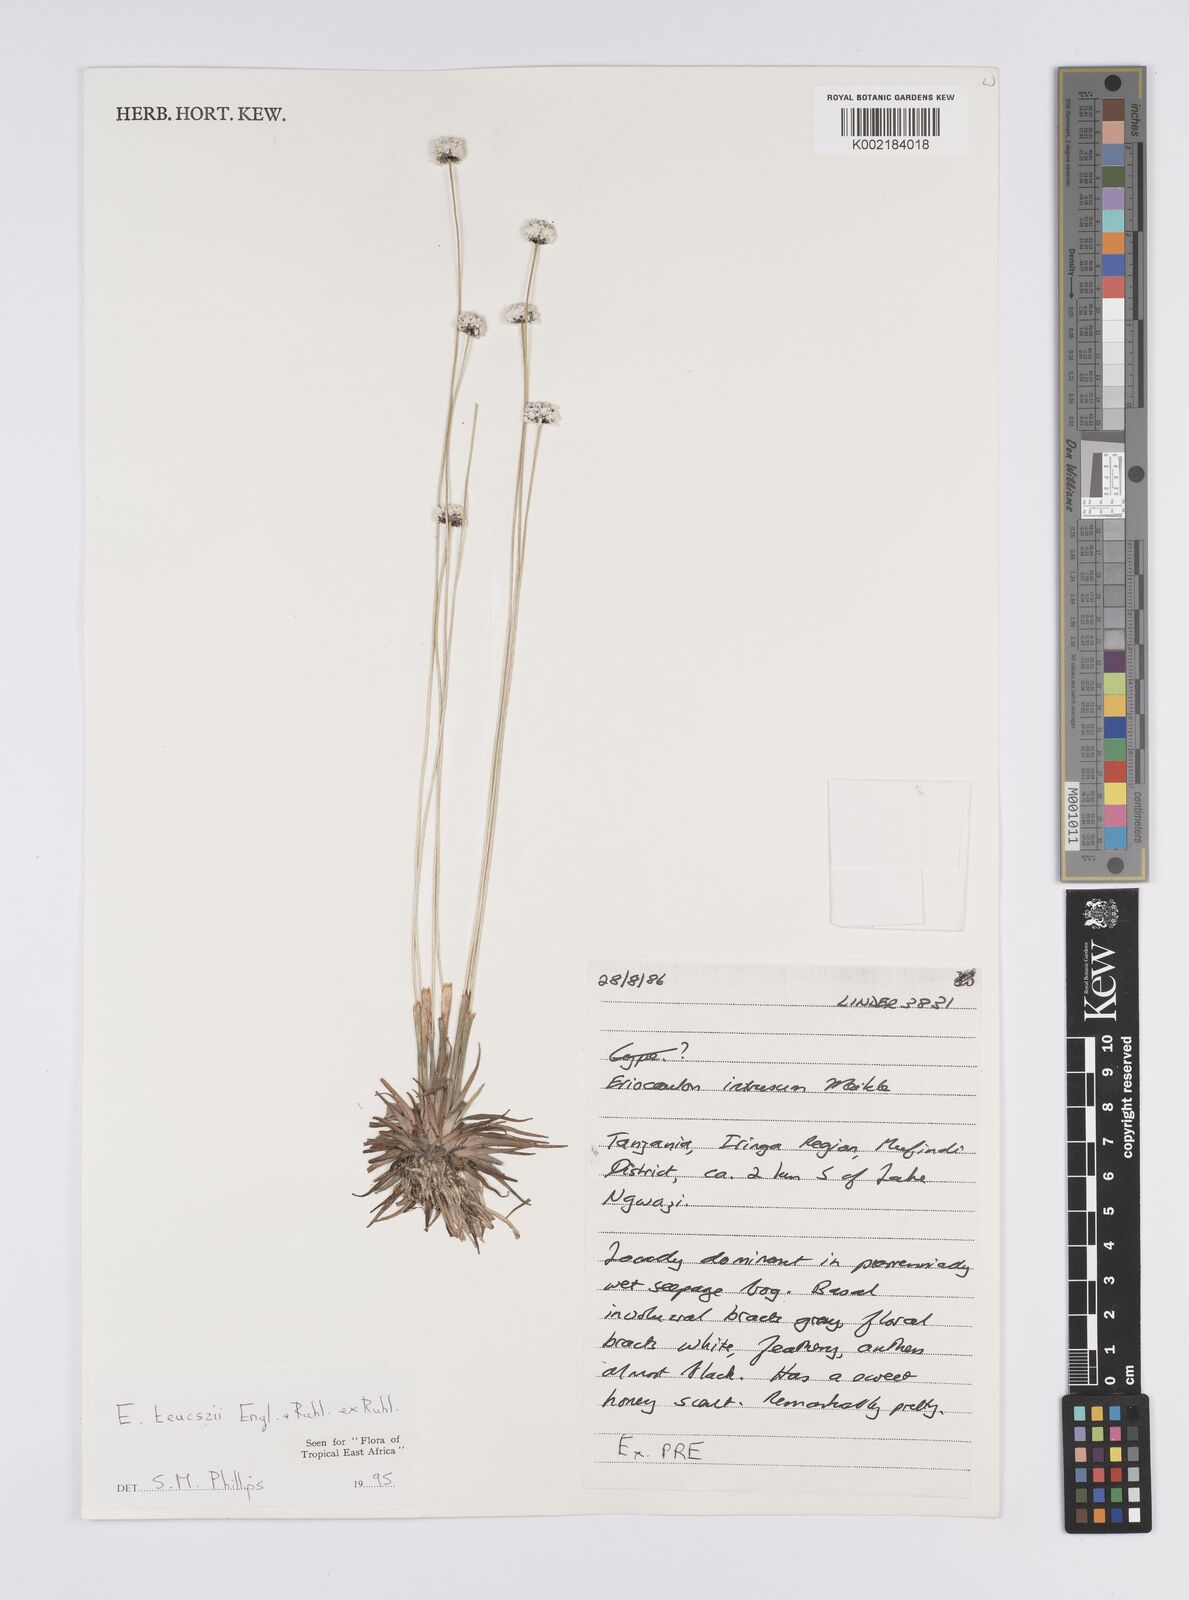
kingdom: Plantae
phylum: Tracheophyta
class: Liliopsida
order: Poales
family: Eriocaulaceae
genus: Eriocaulon
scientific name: Eriocaulon teusczii
